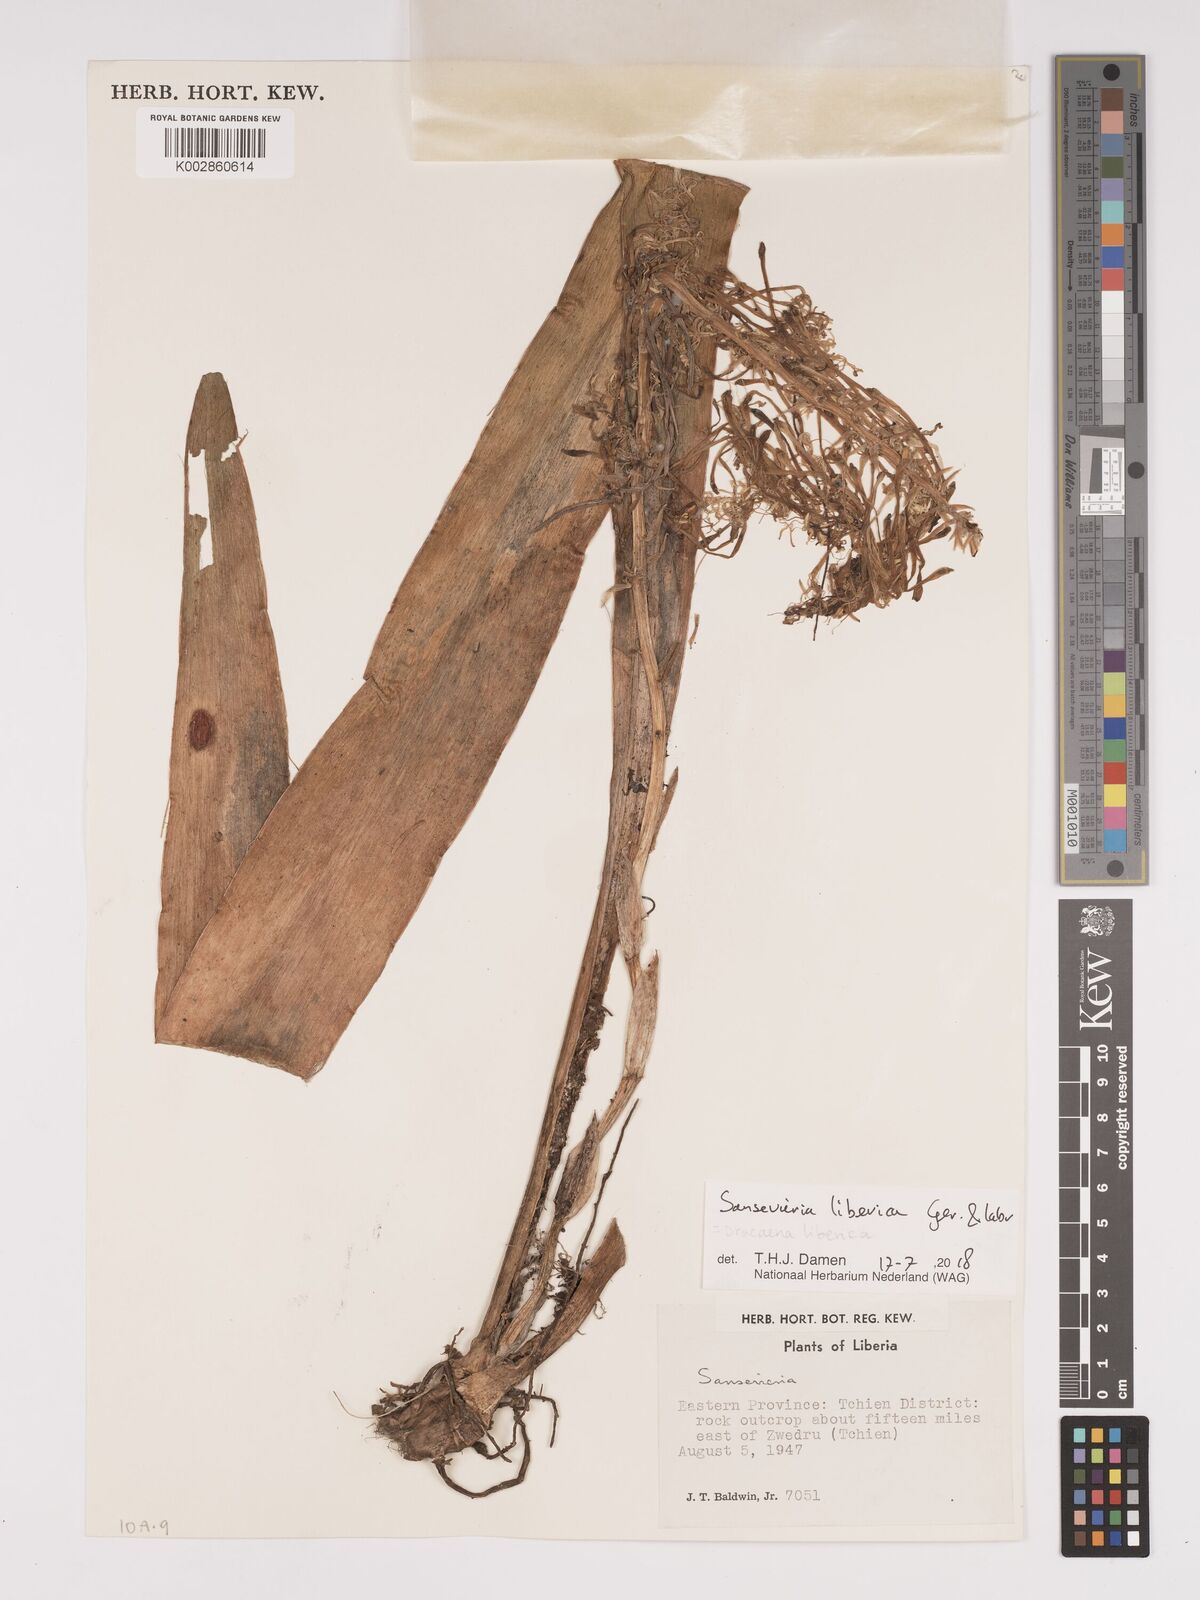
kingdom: Plantae
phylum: Tracheophyta
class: Liliopsida
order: Asparagales
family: Asparagaceae
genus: Dracaena
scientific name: Dracaena liberica
